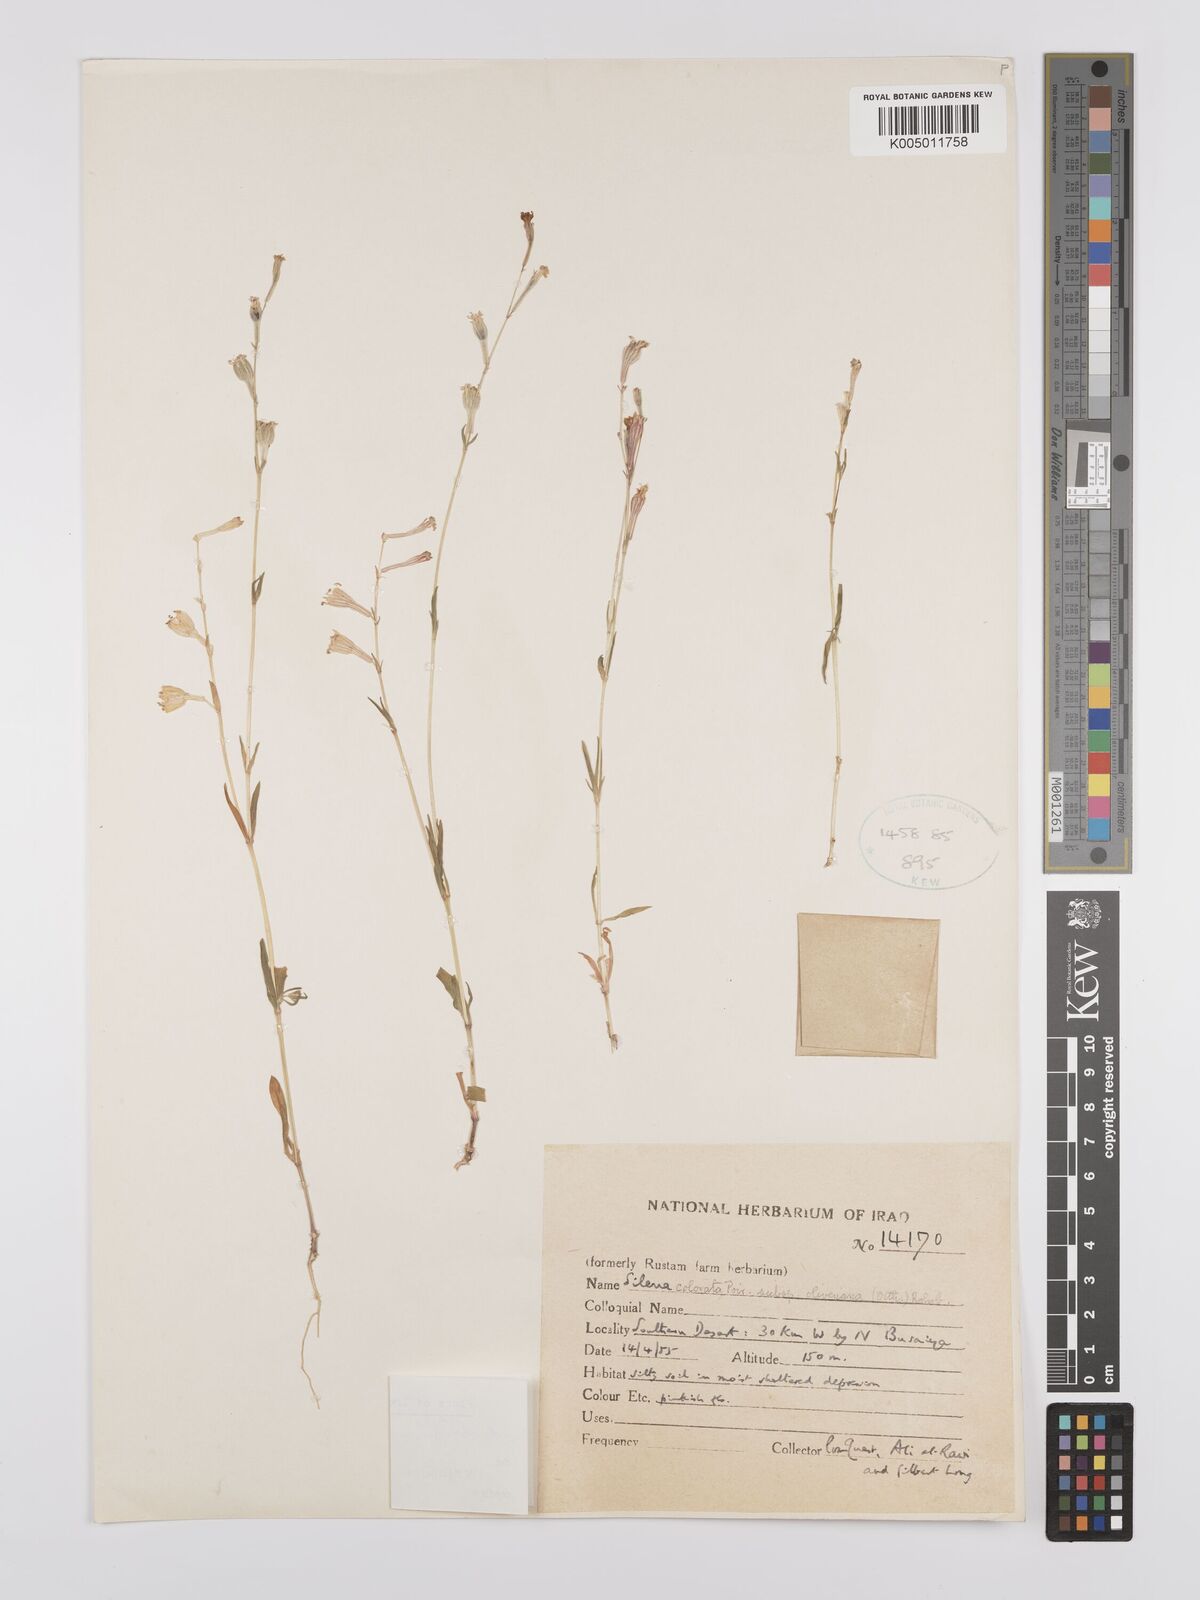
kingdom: Plantae
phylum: Tracheophyta
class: Magnoliopsida
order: Caryophyllales
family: Caryophyllaceae
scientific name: Caryophyllaceae
